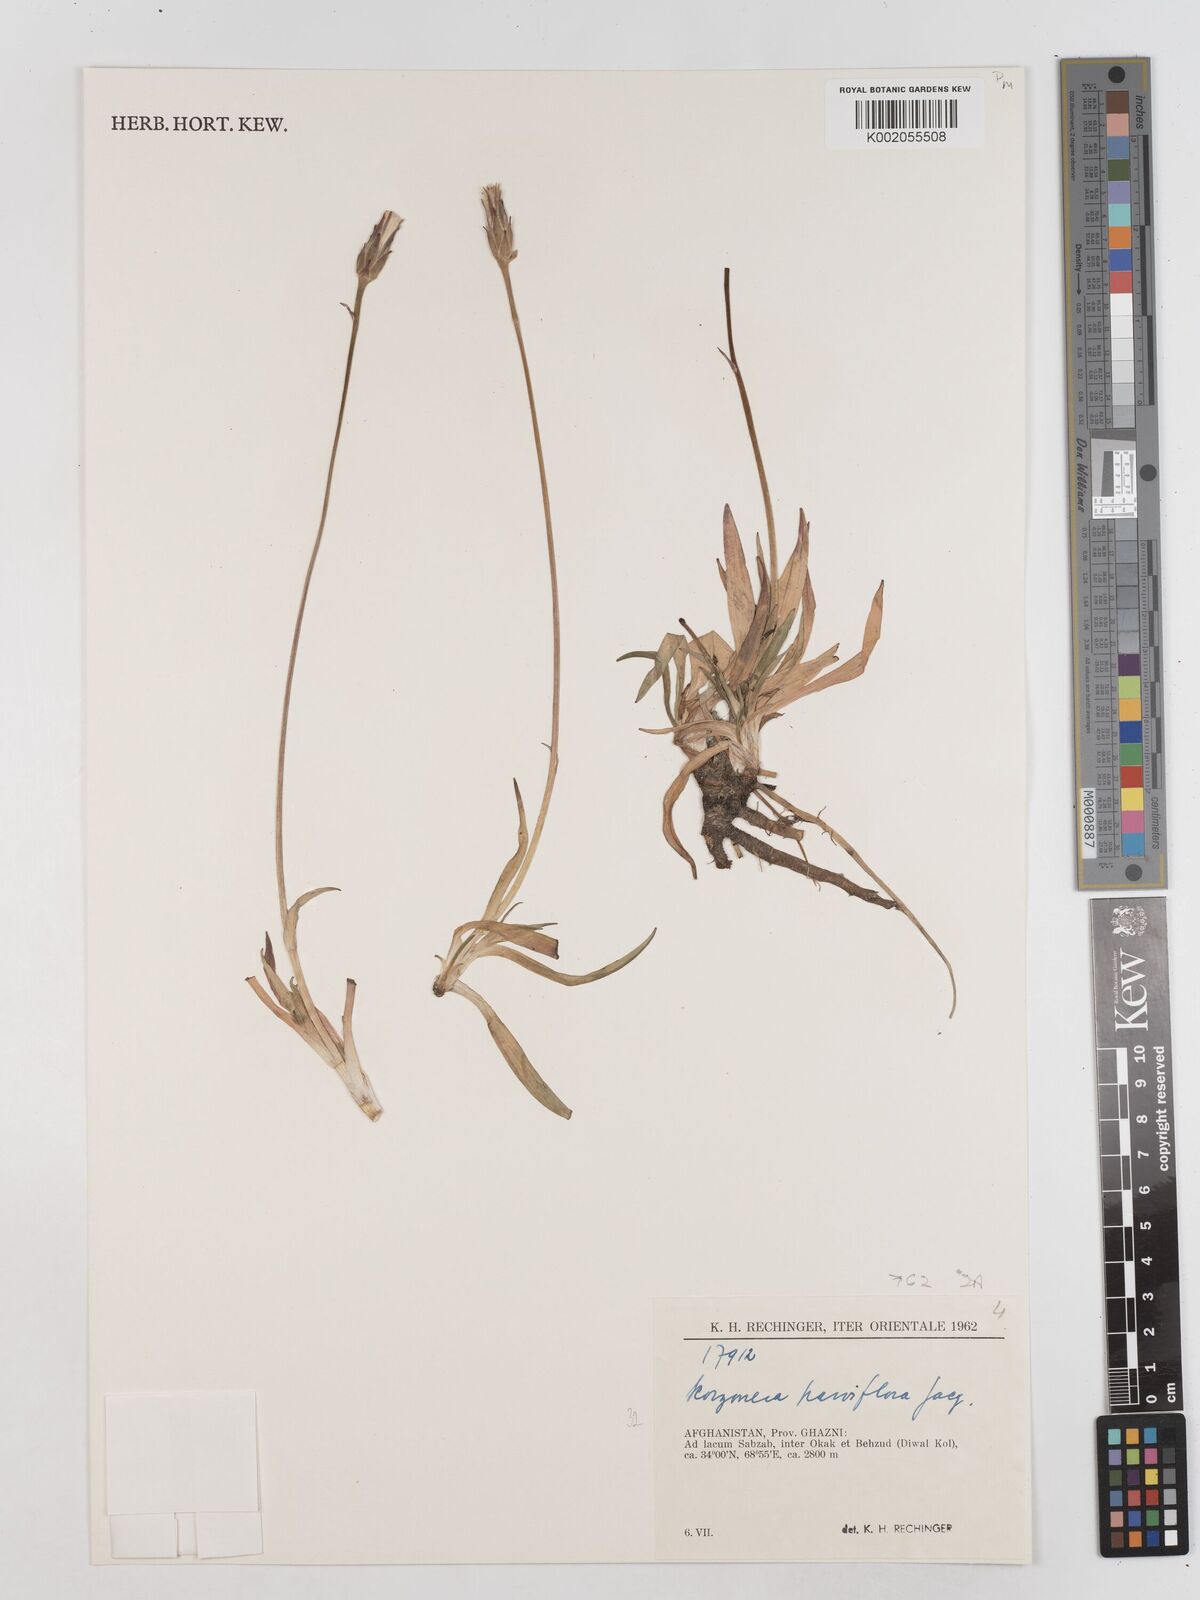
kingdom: Plantae
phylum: Tracheophyta
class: Magnoliopsida
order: Asterales
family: Asteraceae
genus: Scorzonera
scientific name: Scorzonera parviflora
